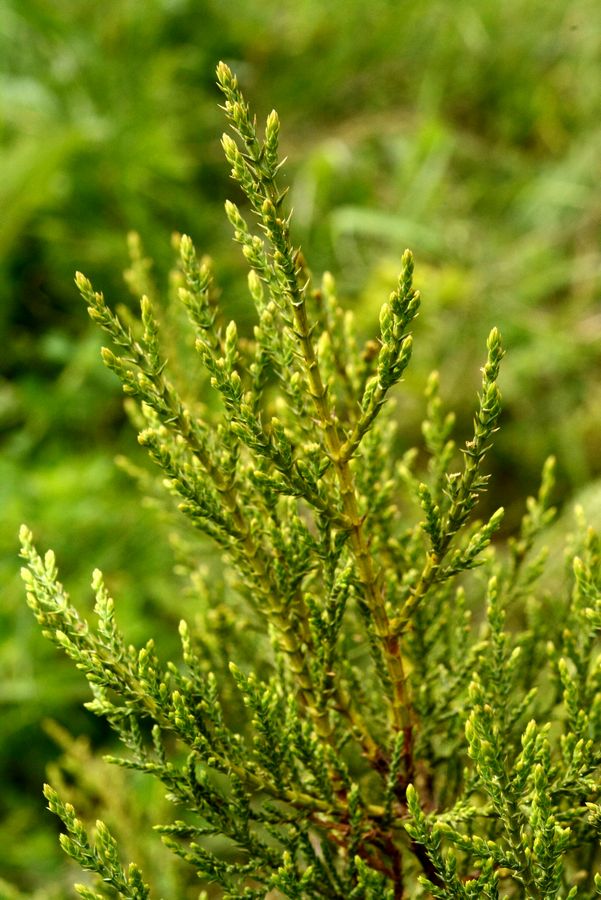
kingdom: Plantae
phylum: Tracheophyta
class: Pinopsida
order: Pinales
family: Cupressaceae
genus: Juniperus
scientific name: Juniperus excelsa
